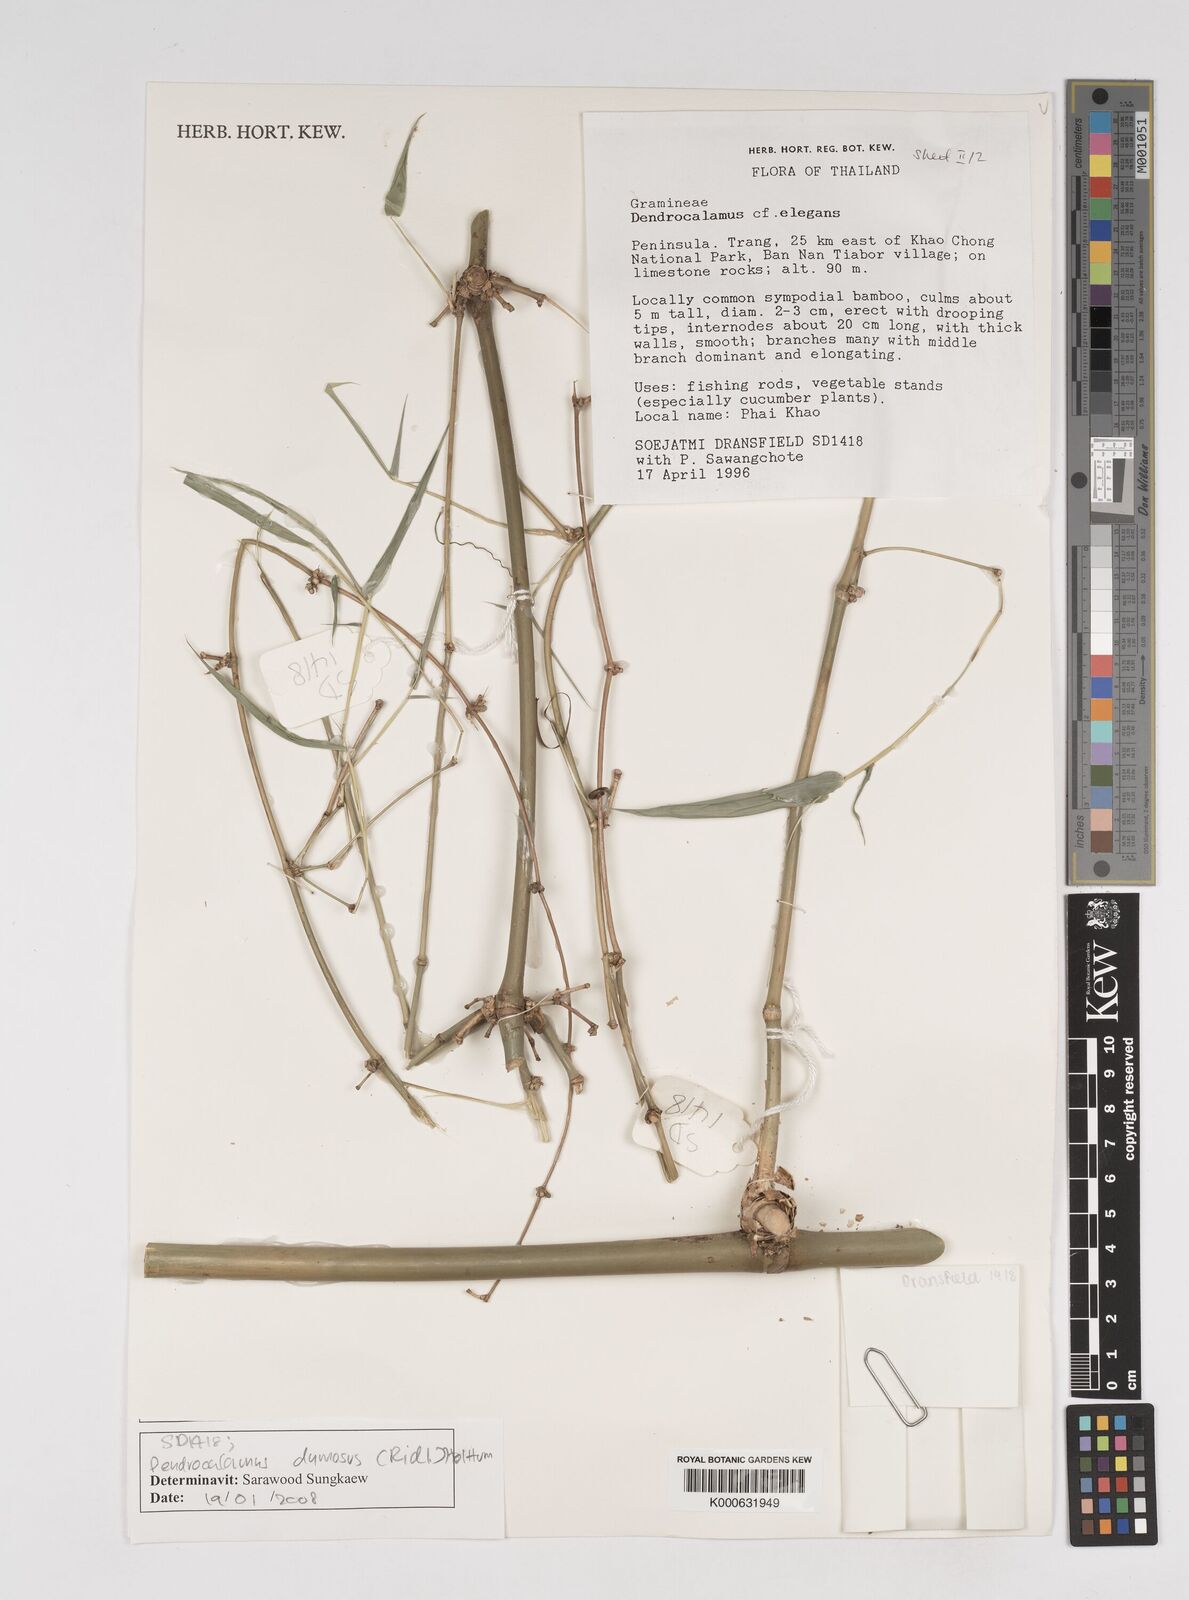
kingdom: Plantae
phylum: Tracheophyta
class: Liliopsida
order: Poales
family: Poaceae
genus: Dendrocalamus
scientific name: Dendrocalamus brandisii
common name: Velvetleaf bamboo
